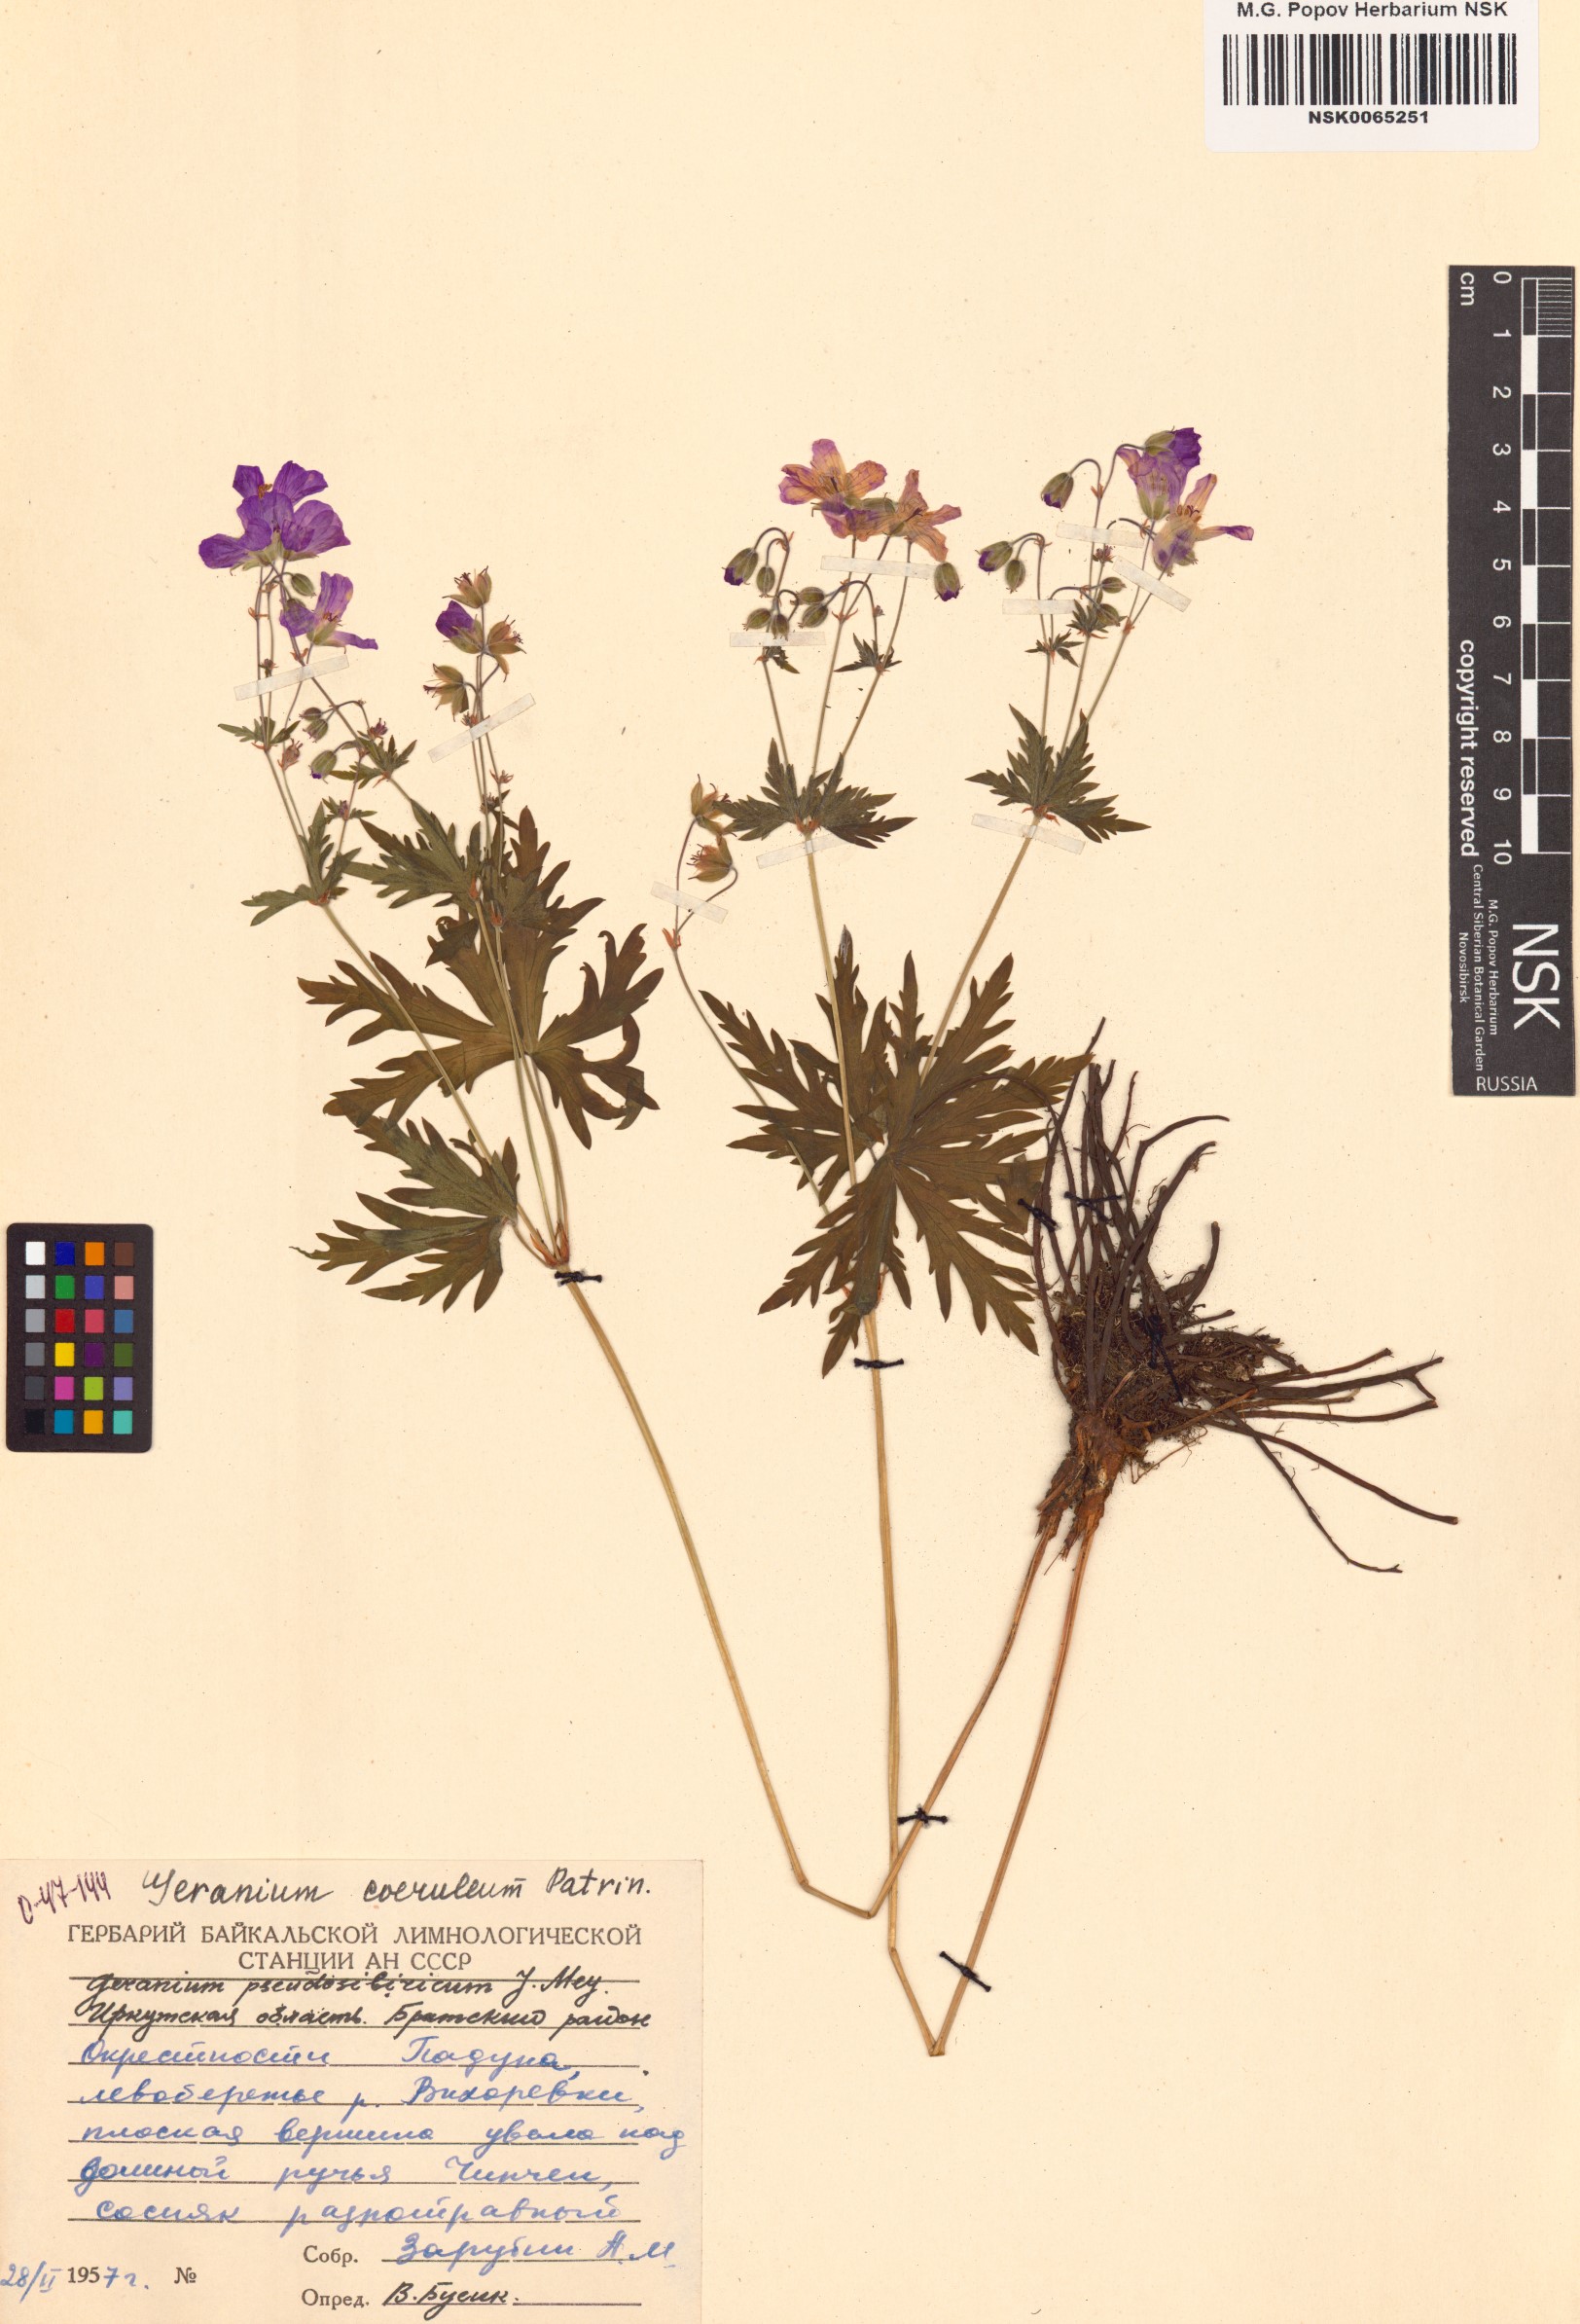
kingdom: Plantae
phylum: Tracheophyta
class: Magnoliopsida
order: Geraniales
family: Geraniaceae
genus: Geranium
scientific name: Geranium pseudosibiricum
